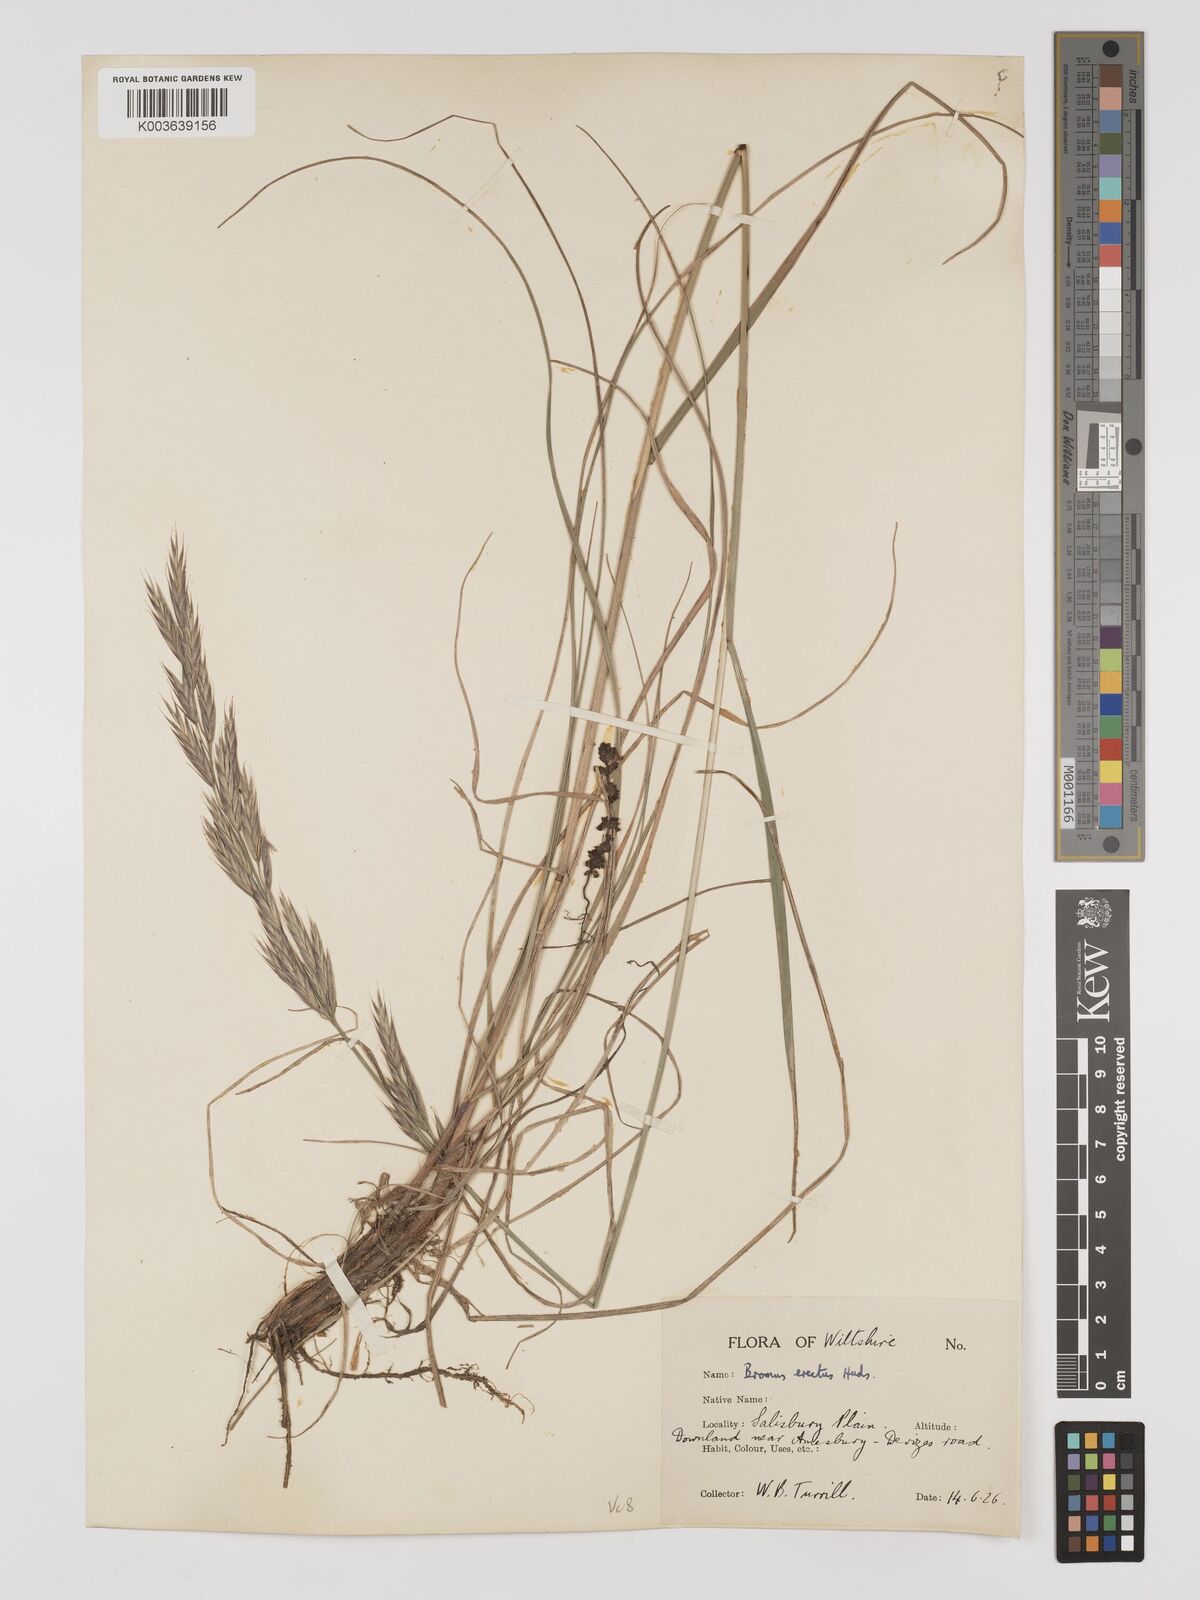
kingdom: Plantae
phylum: Tracheophyta
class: Liliopsida
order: Poales
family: Poaceae
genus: Bromus
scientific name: Bromus erectus
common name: Erect brome
